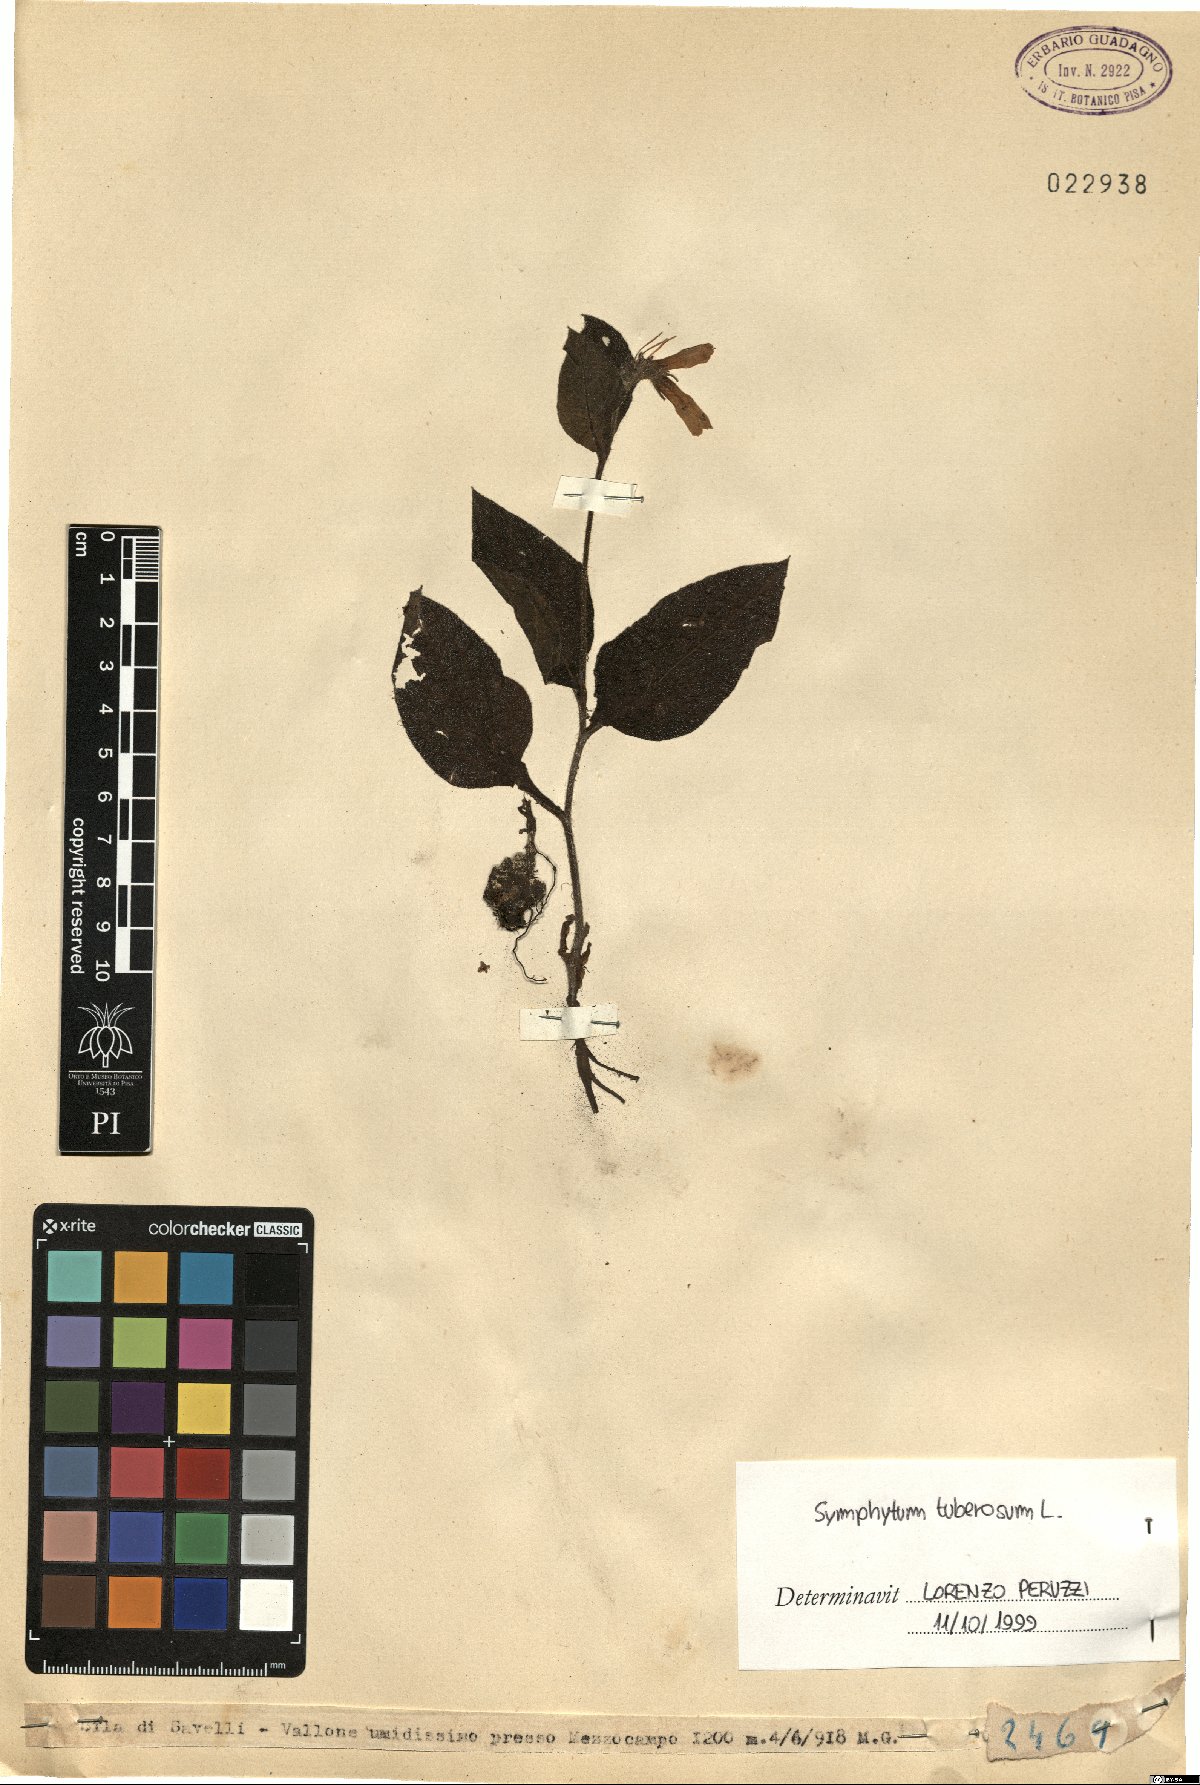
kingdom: Plantae
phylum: Tracheophyta
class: Magnoliopsida
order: Boraginales
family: Boraginaceae
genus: Symphytum
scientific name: Symphytum tuberosum
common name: Tuberous comfrey
